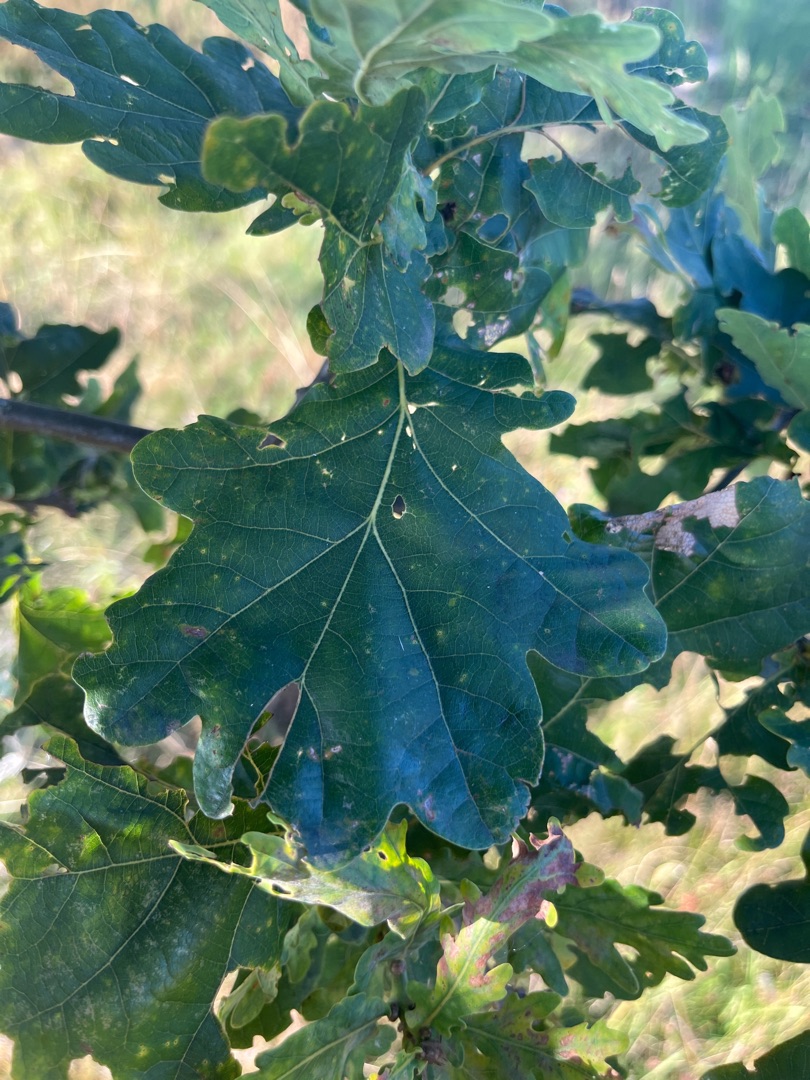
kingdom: Plantae
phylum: Tracheophyta
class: Magnoliopsida
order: Fagales
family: Fagaceae
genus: Quercus
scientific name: Quercus robur
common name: Stilk-eg/almindelig eg
